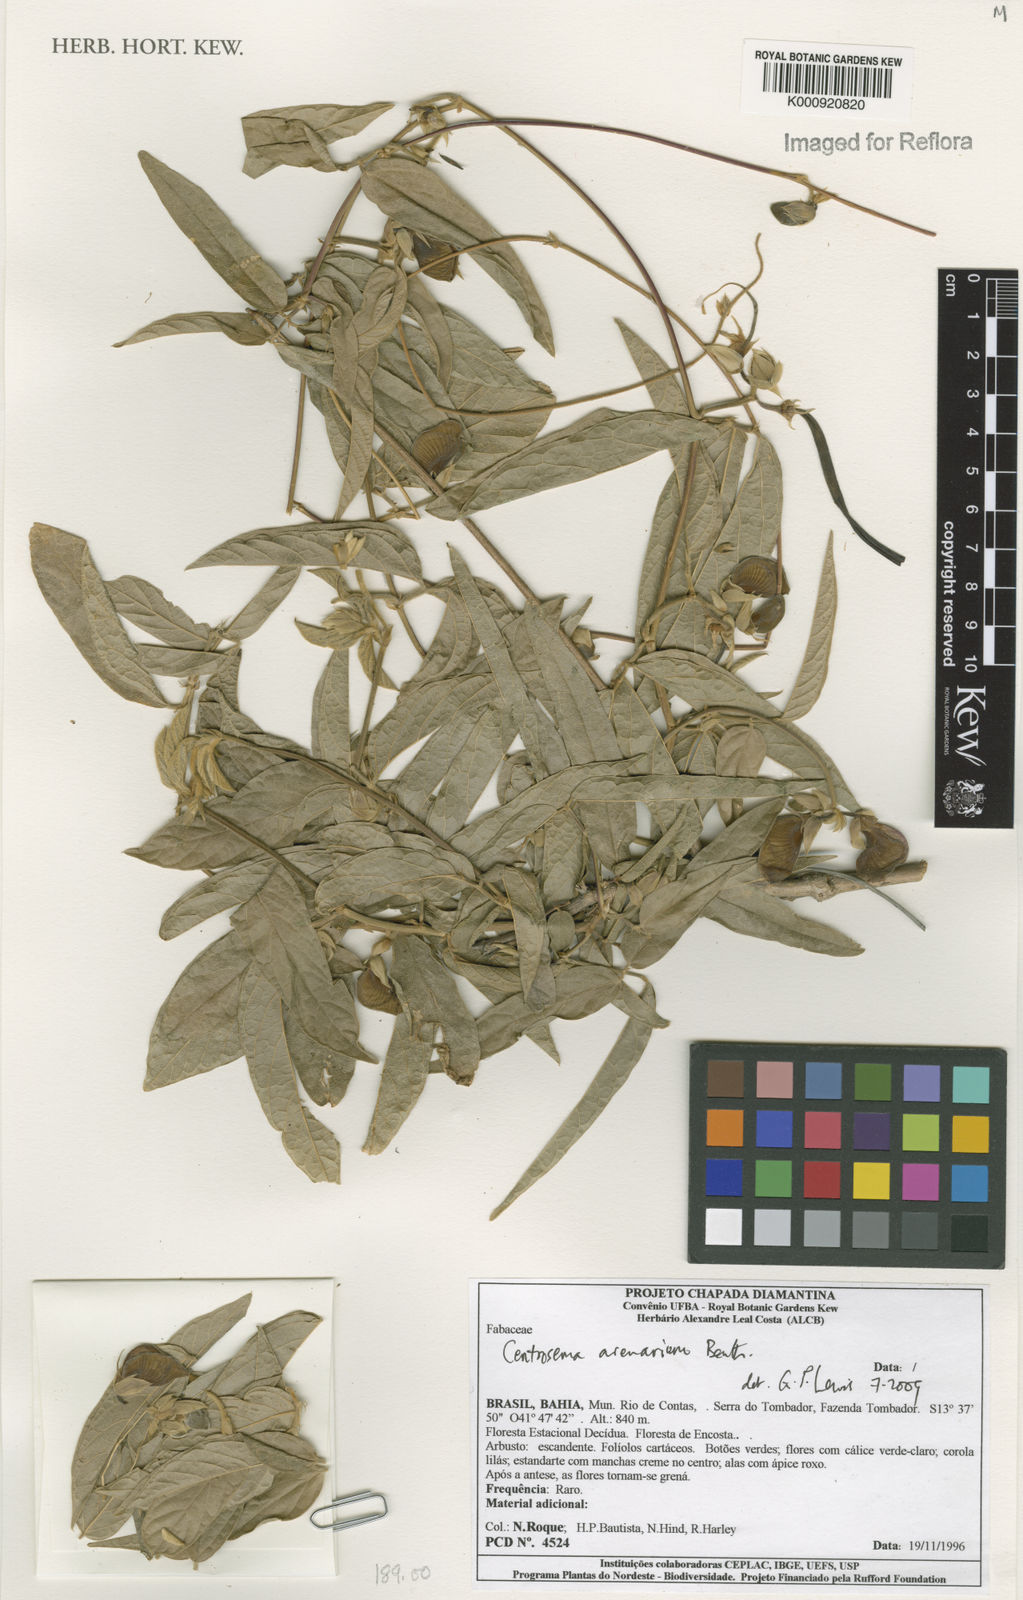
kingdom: Plantae
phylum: Tracheophyta
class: Magnoliopsida
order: Fabales
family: Fabaceae
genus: Centrosema
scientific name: Centrosema arenarium
